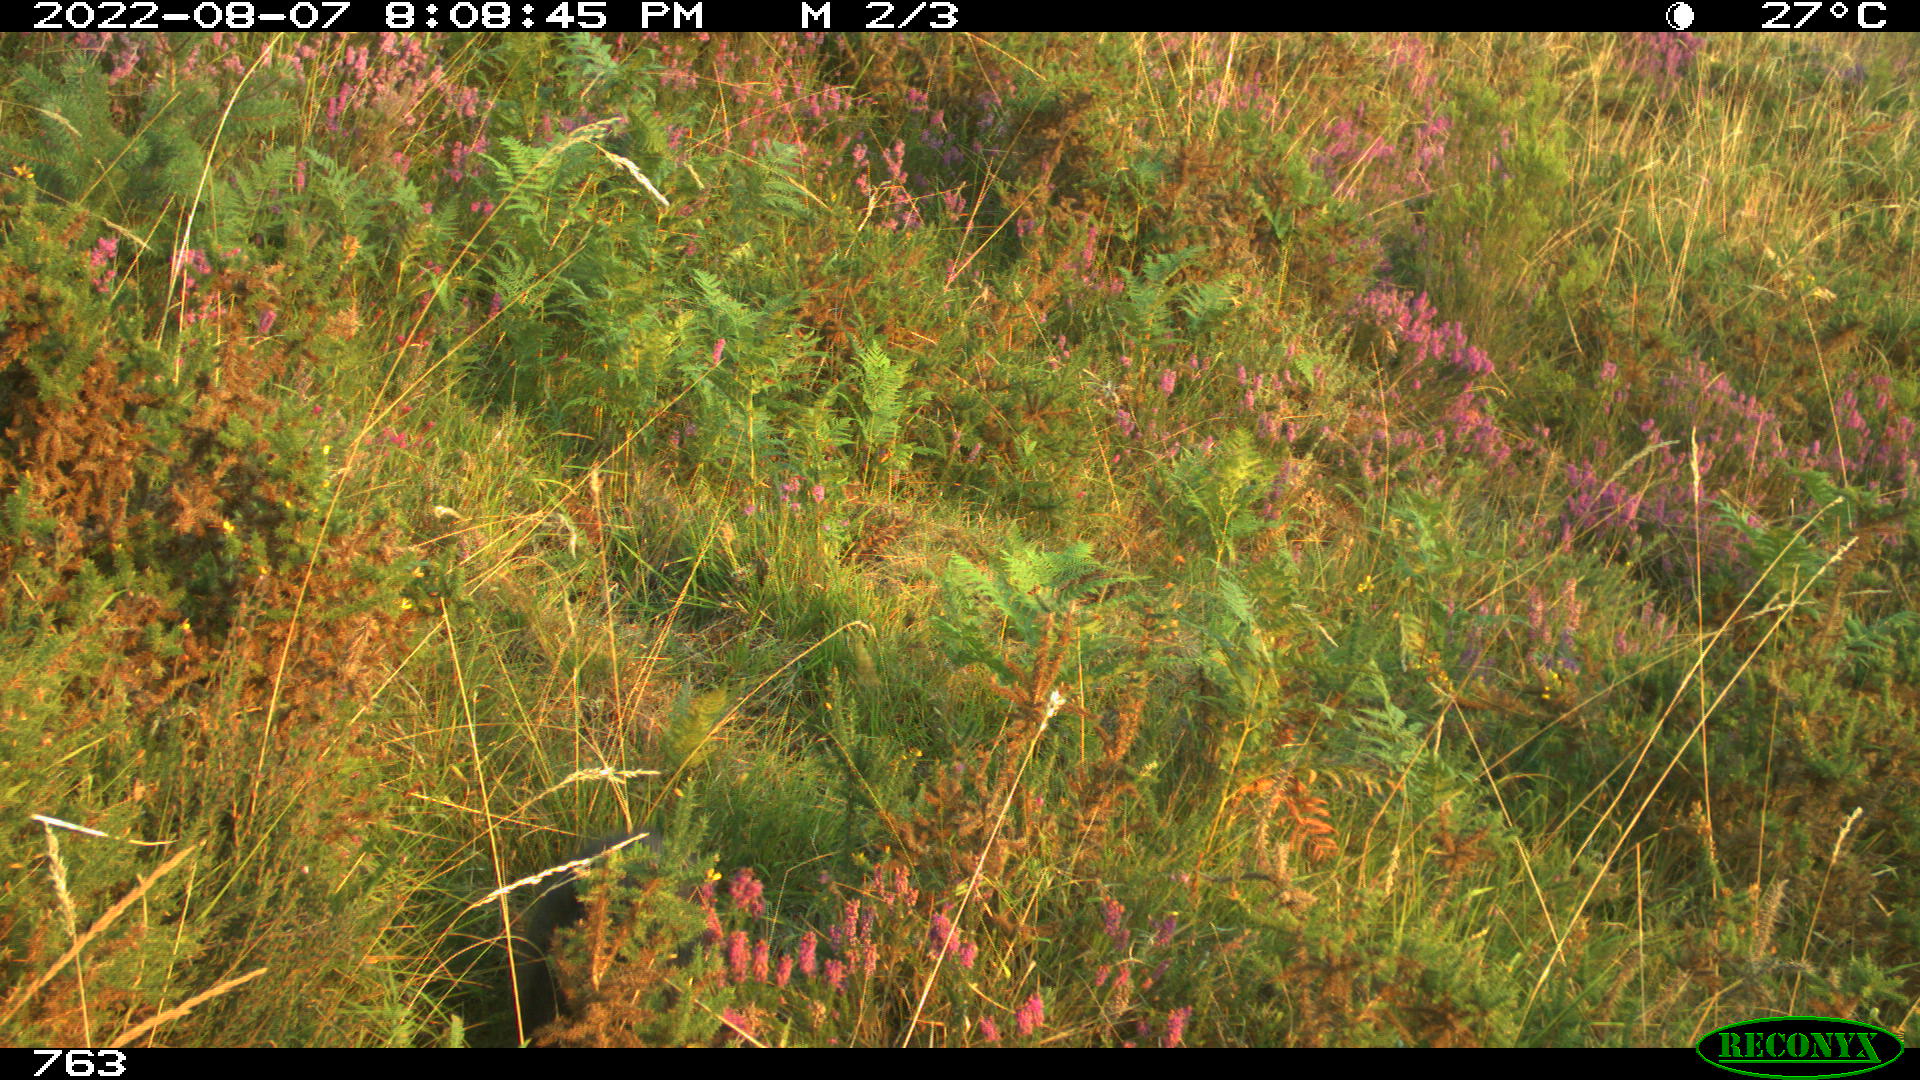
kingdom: Animalia
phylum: Chordata
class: Mammalia
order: Artiodactyla
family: Suidae
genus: Sus
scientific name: Sus scrofa
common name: Wild boar
